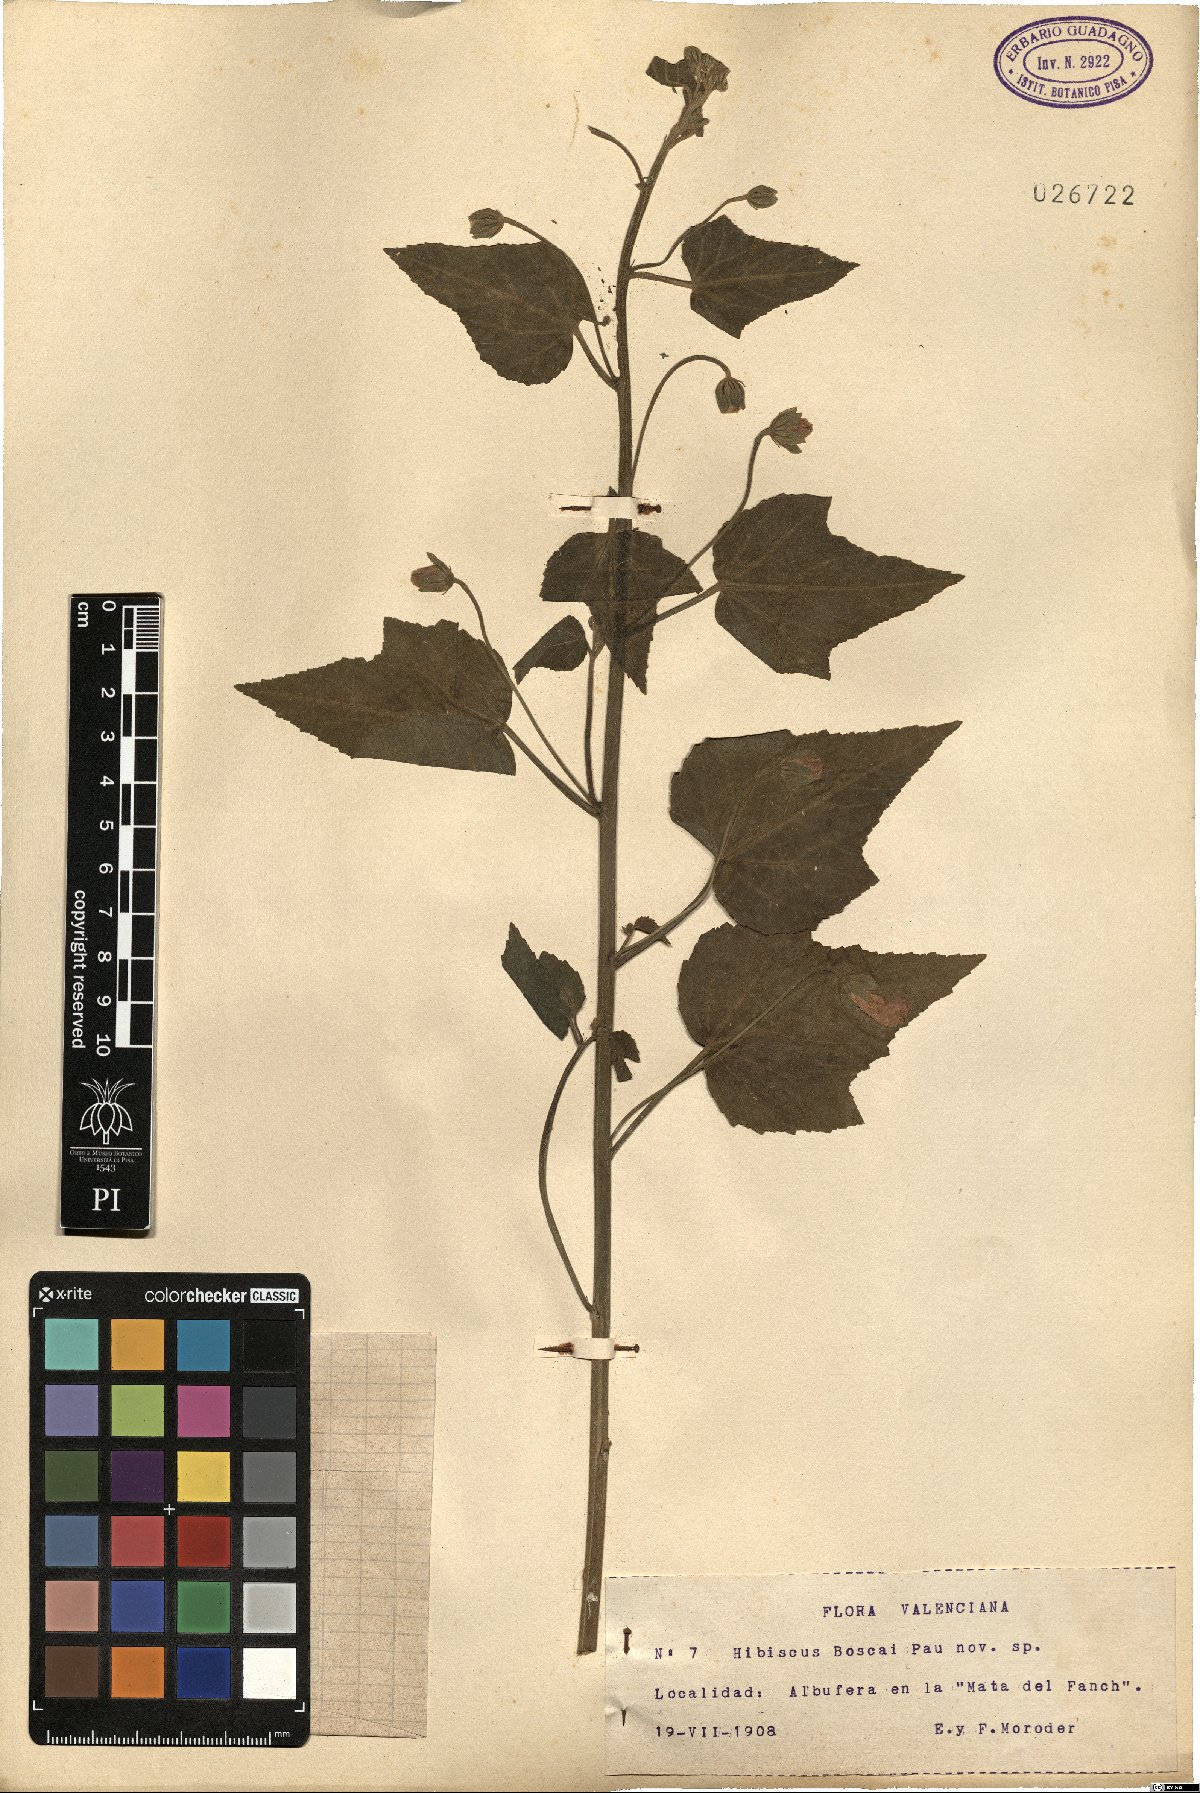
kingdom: Plantae
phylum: Tracheophyta
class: Magnoliopsida
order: Malvales
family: Malvaceae
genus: Kosteletzkya
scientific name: Kosteletzkya pentacarpos
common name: Virginia saltmarsh mallow
